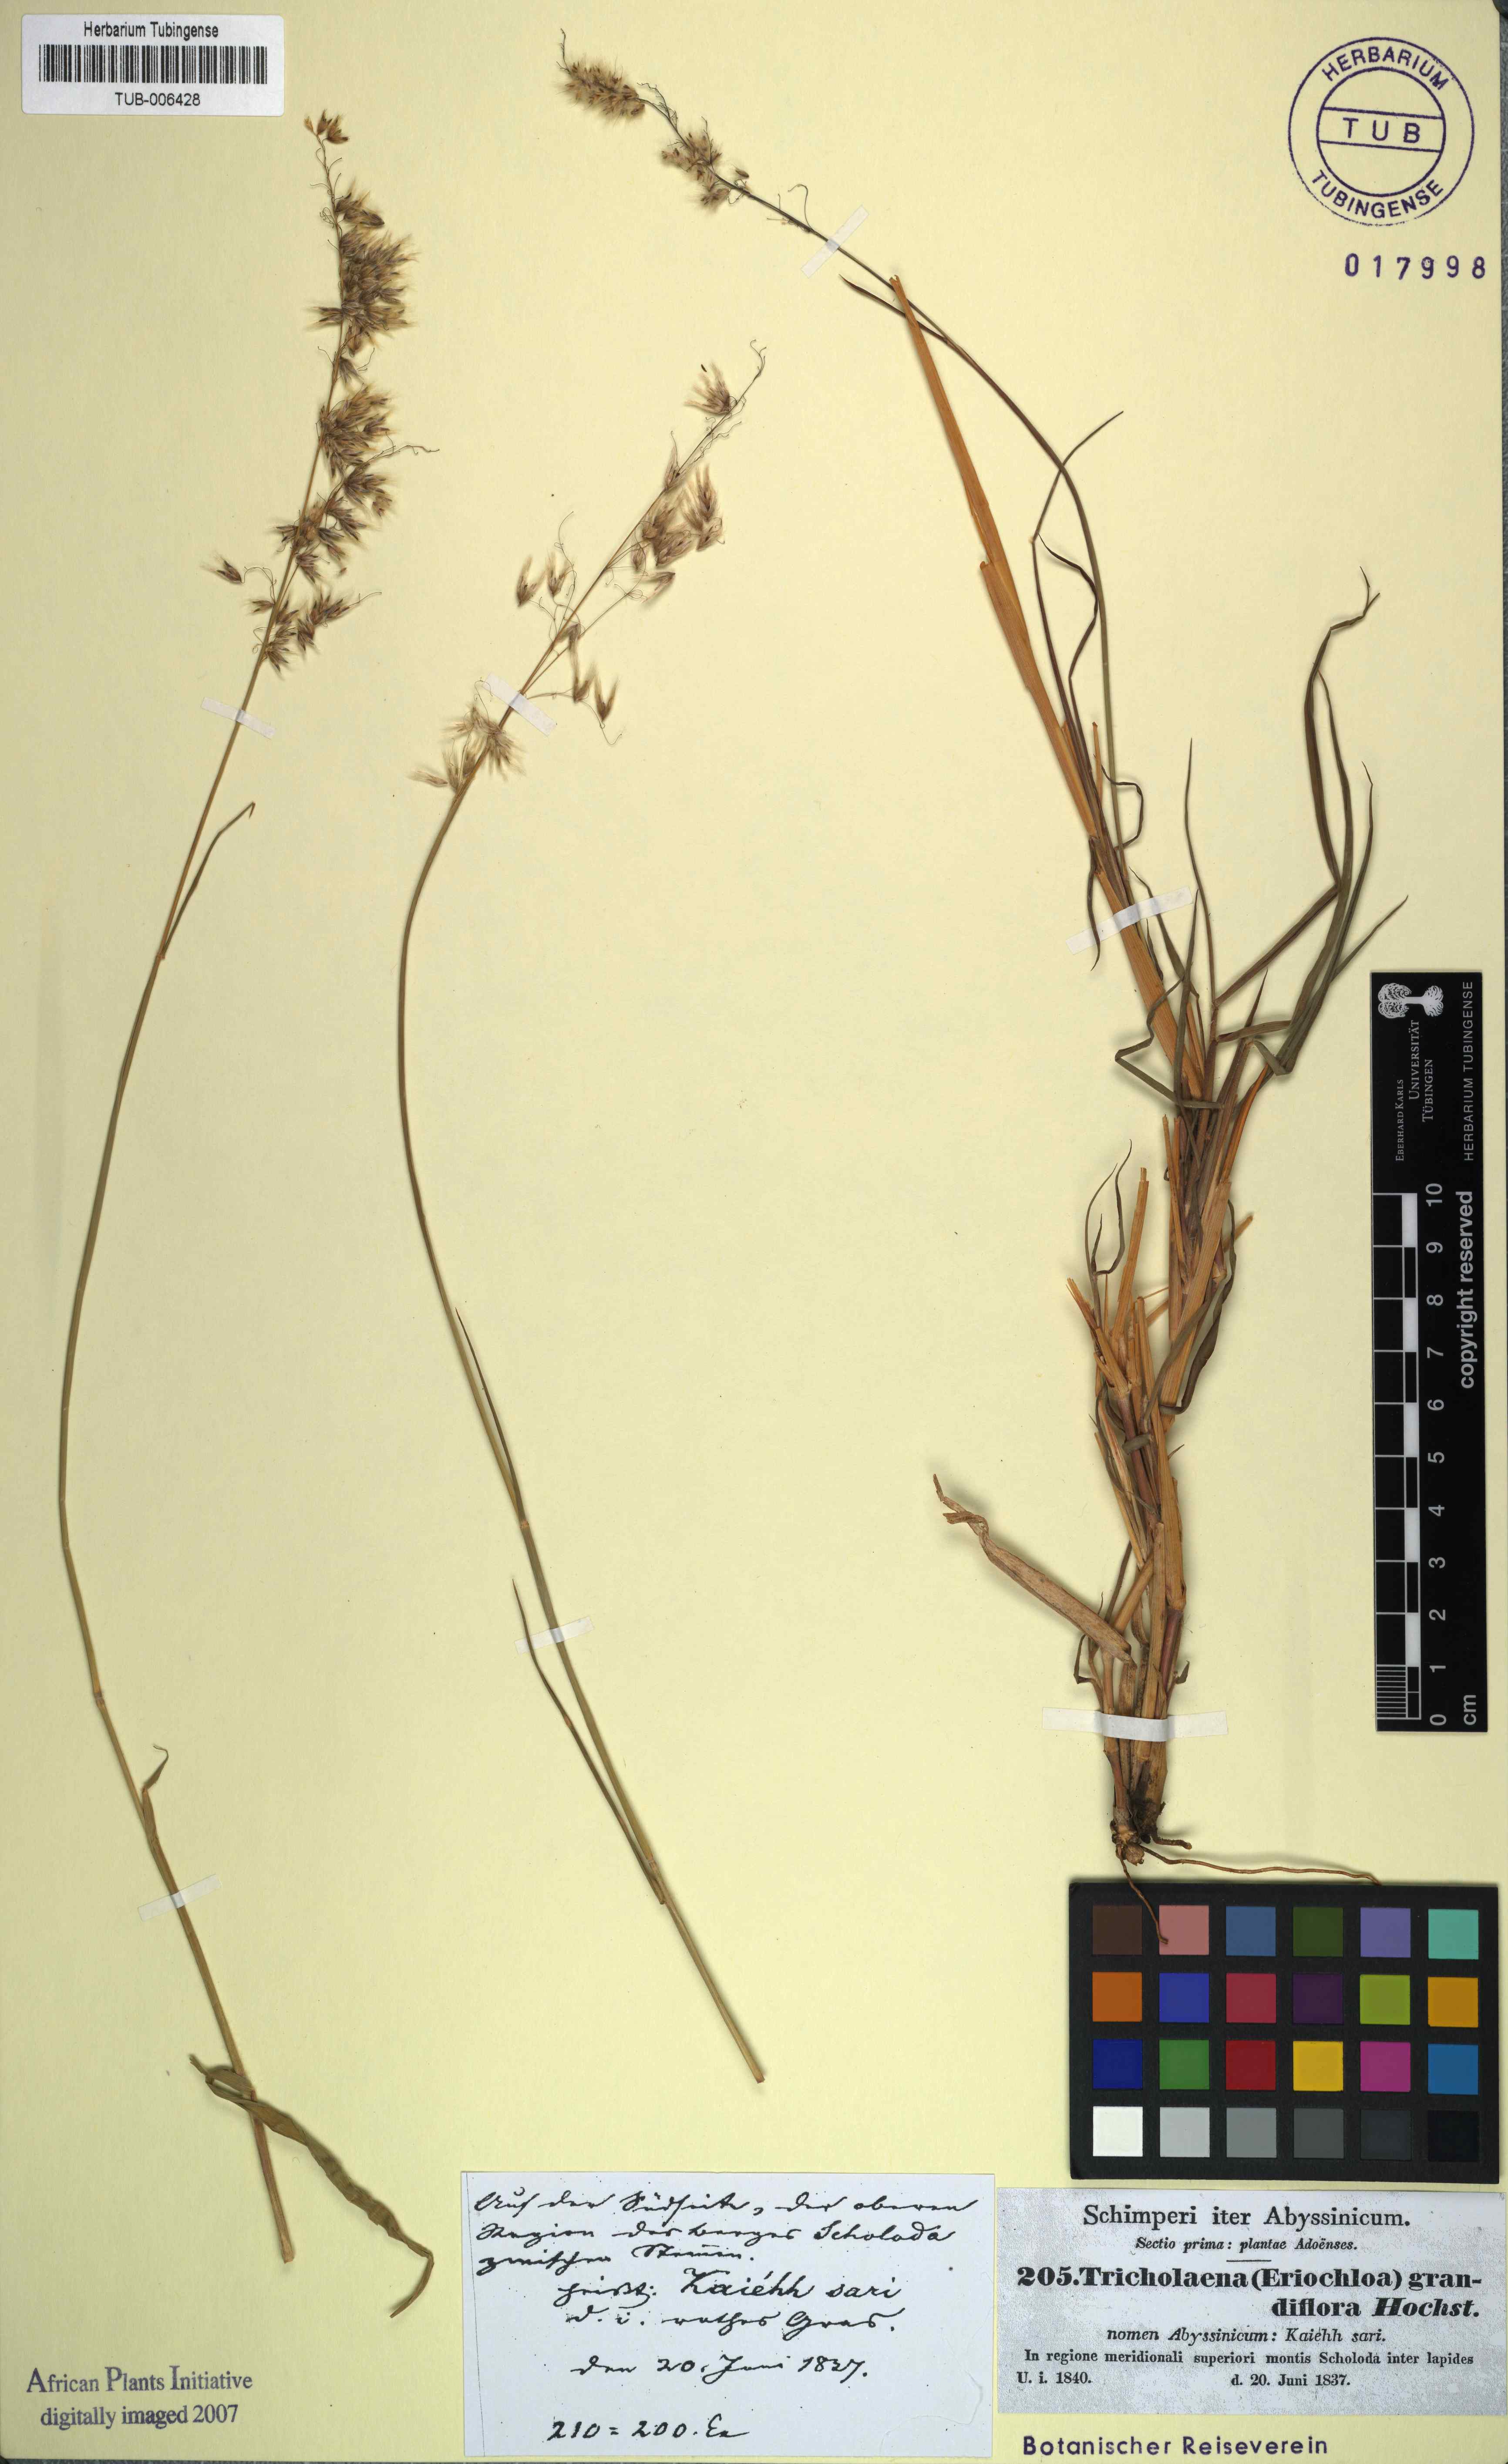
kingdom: Plantae
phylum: Tracheophyta
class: Liliopsida
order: Poales
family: Poaceae
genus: Melinis
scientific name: Melinis repens
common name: Rose natal grass
